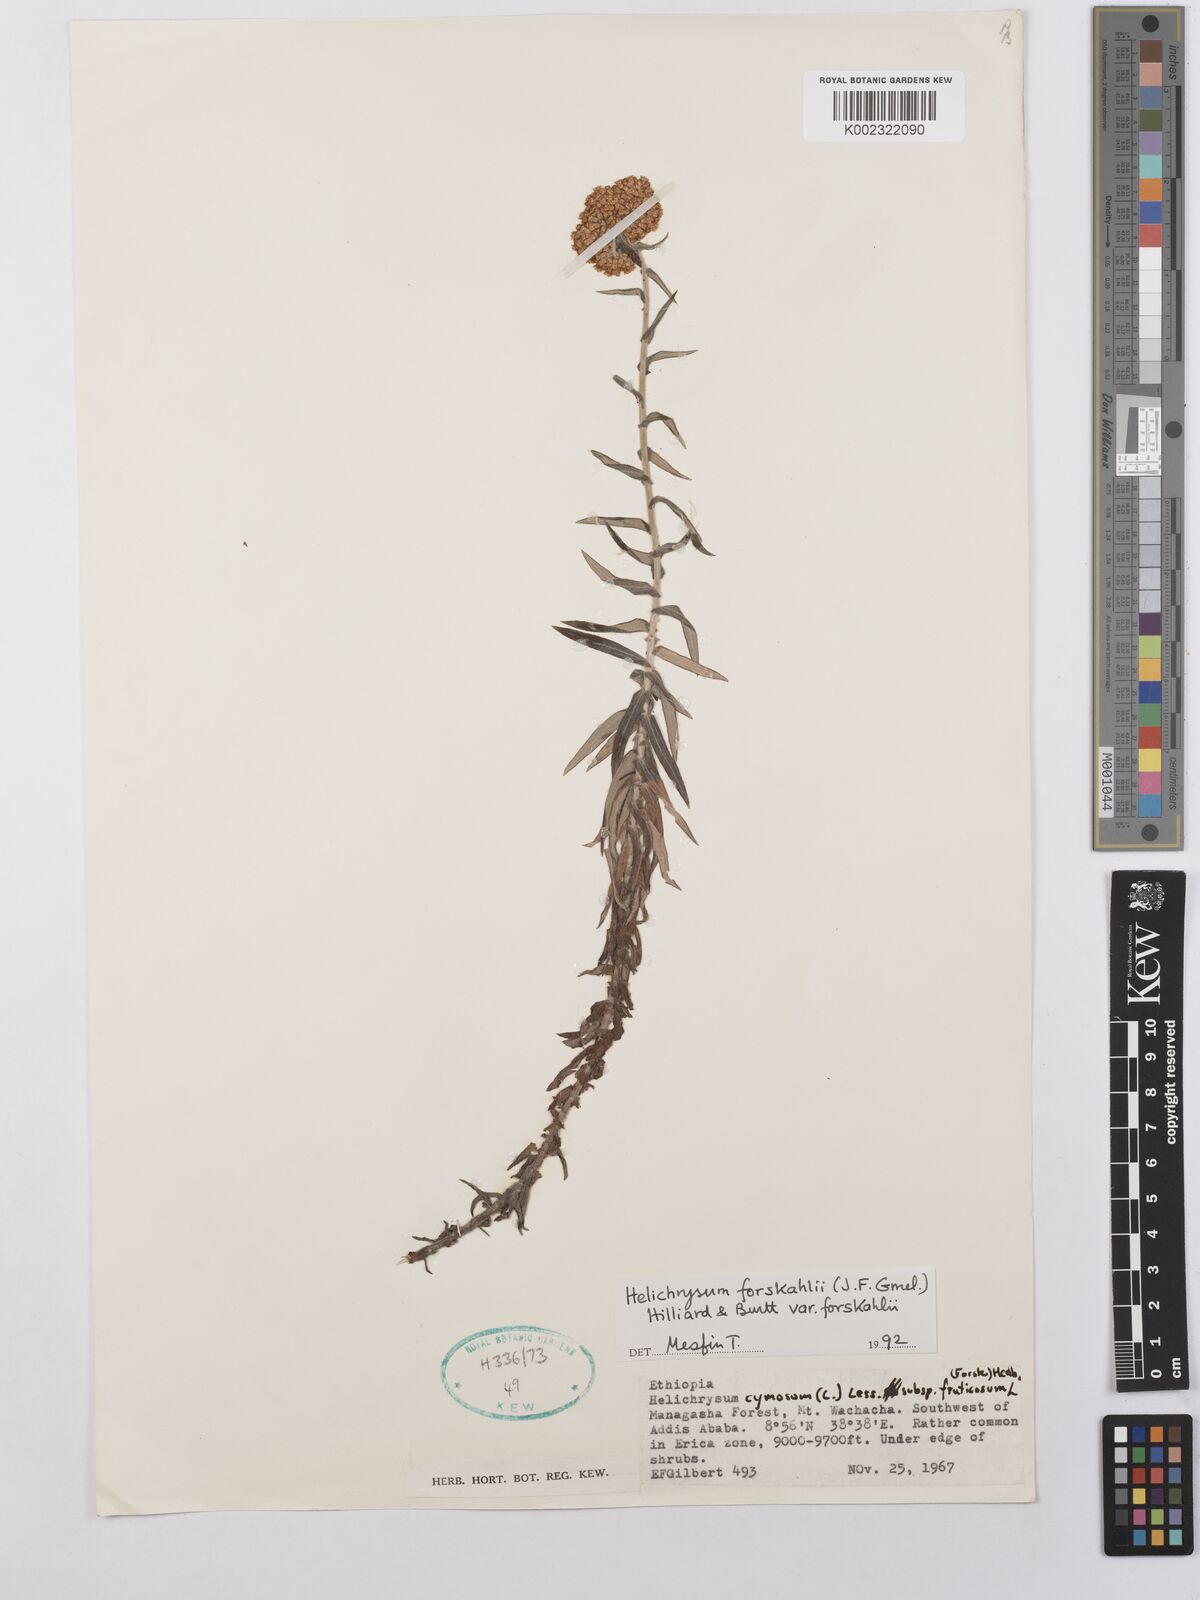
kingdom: Plantae
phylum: Tracheophyta
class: Magnoliopsida
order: Asterales
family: Asteraceae
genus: Helichrysum
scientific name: Helichrysum forskahlii
